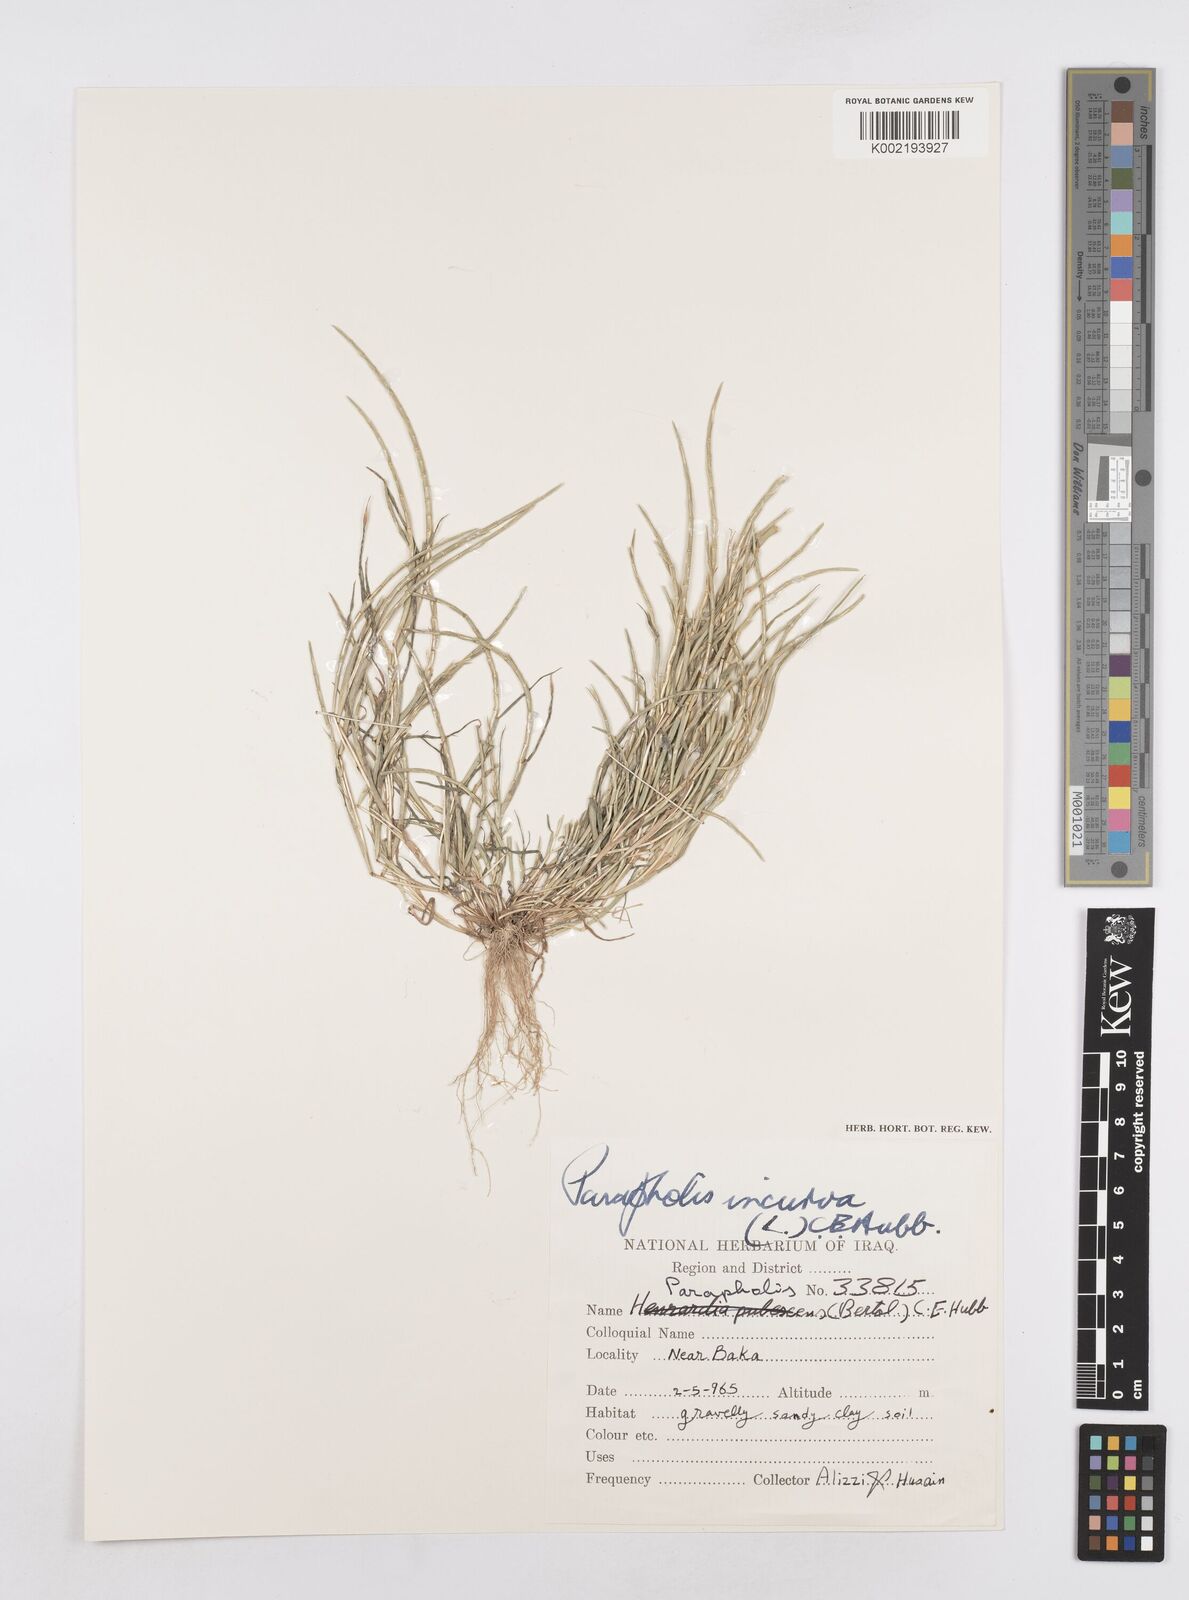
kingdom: Plantae
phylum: Tracheophyta
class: Liliopsida
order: Poales
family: Poaceae
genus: Parapholis
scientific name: Parapholis incurva
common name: Curved sicklegrass
